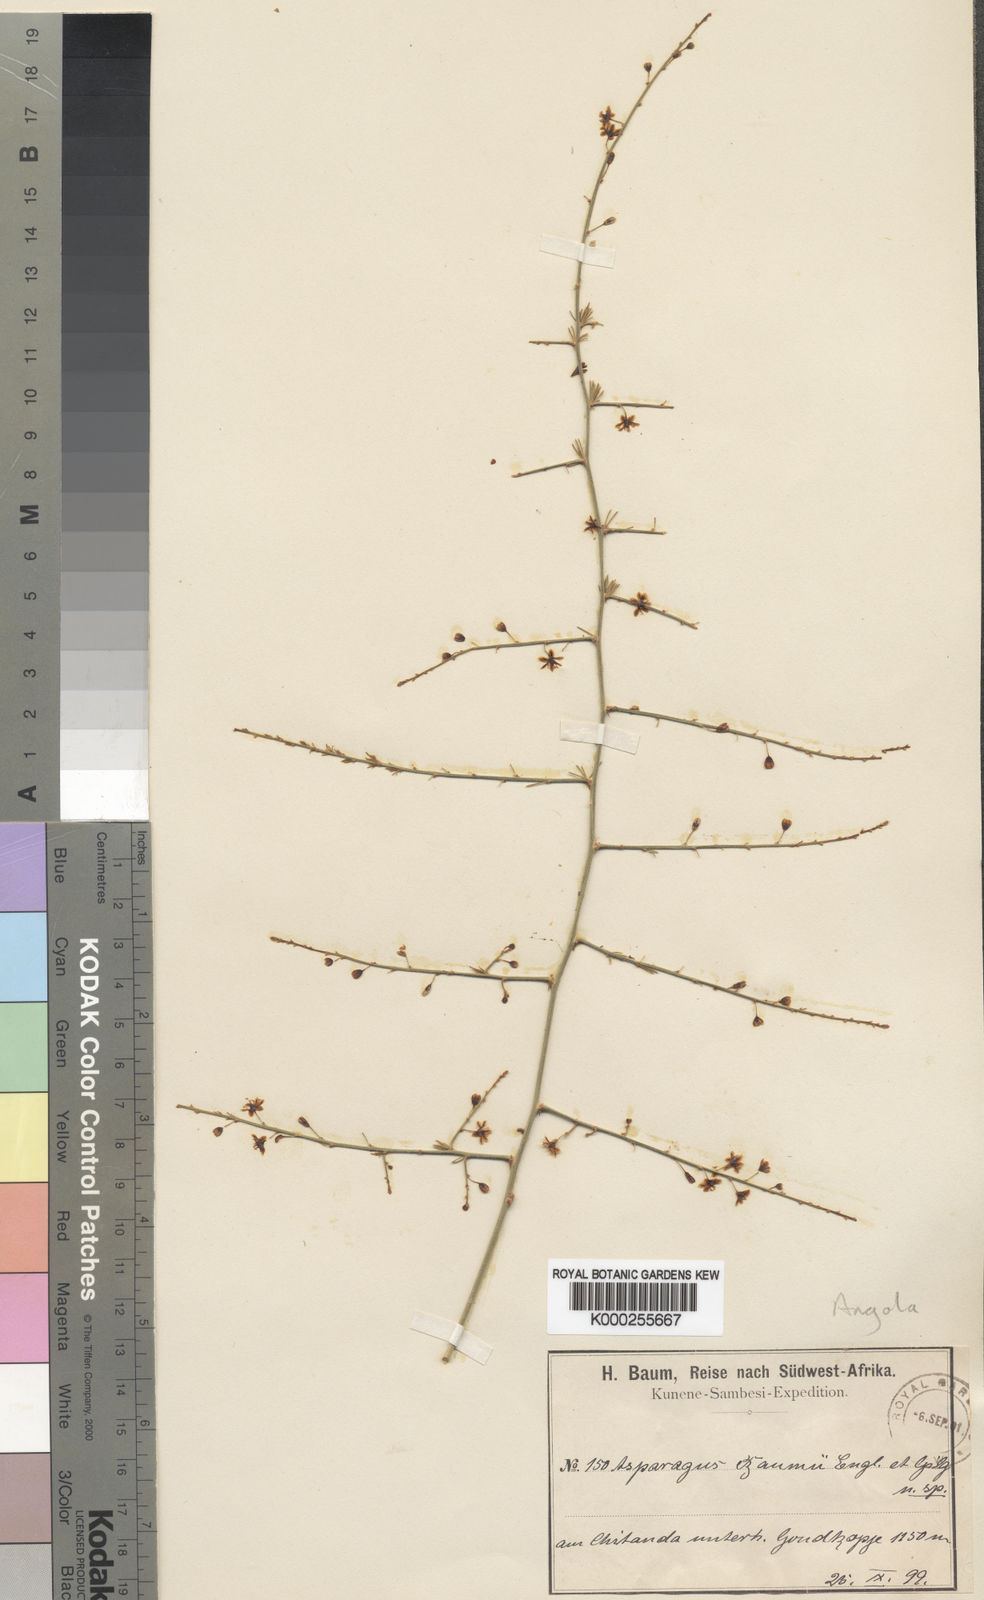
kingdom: Plantae
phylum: Tracheophyta
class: Liliopsida
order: Asparagales
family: Asparagaceae
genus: Asparagus
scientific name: Asparagus africanus
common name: Asparagus-fern
